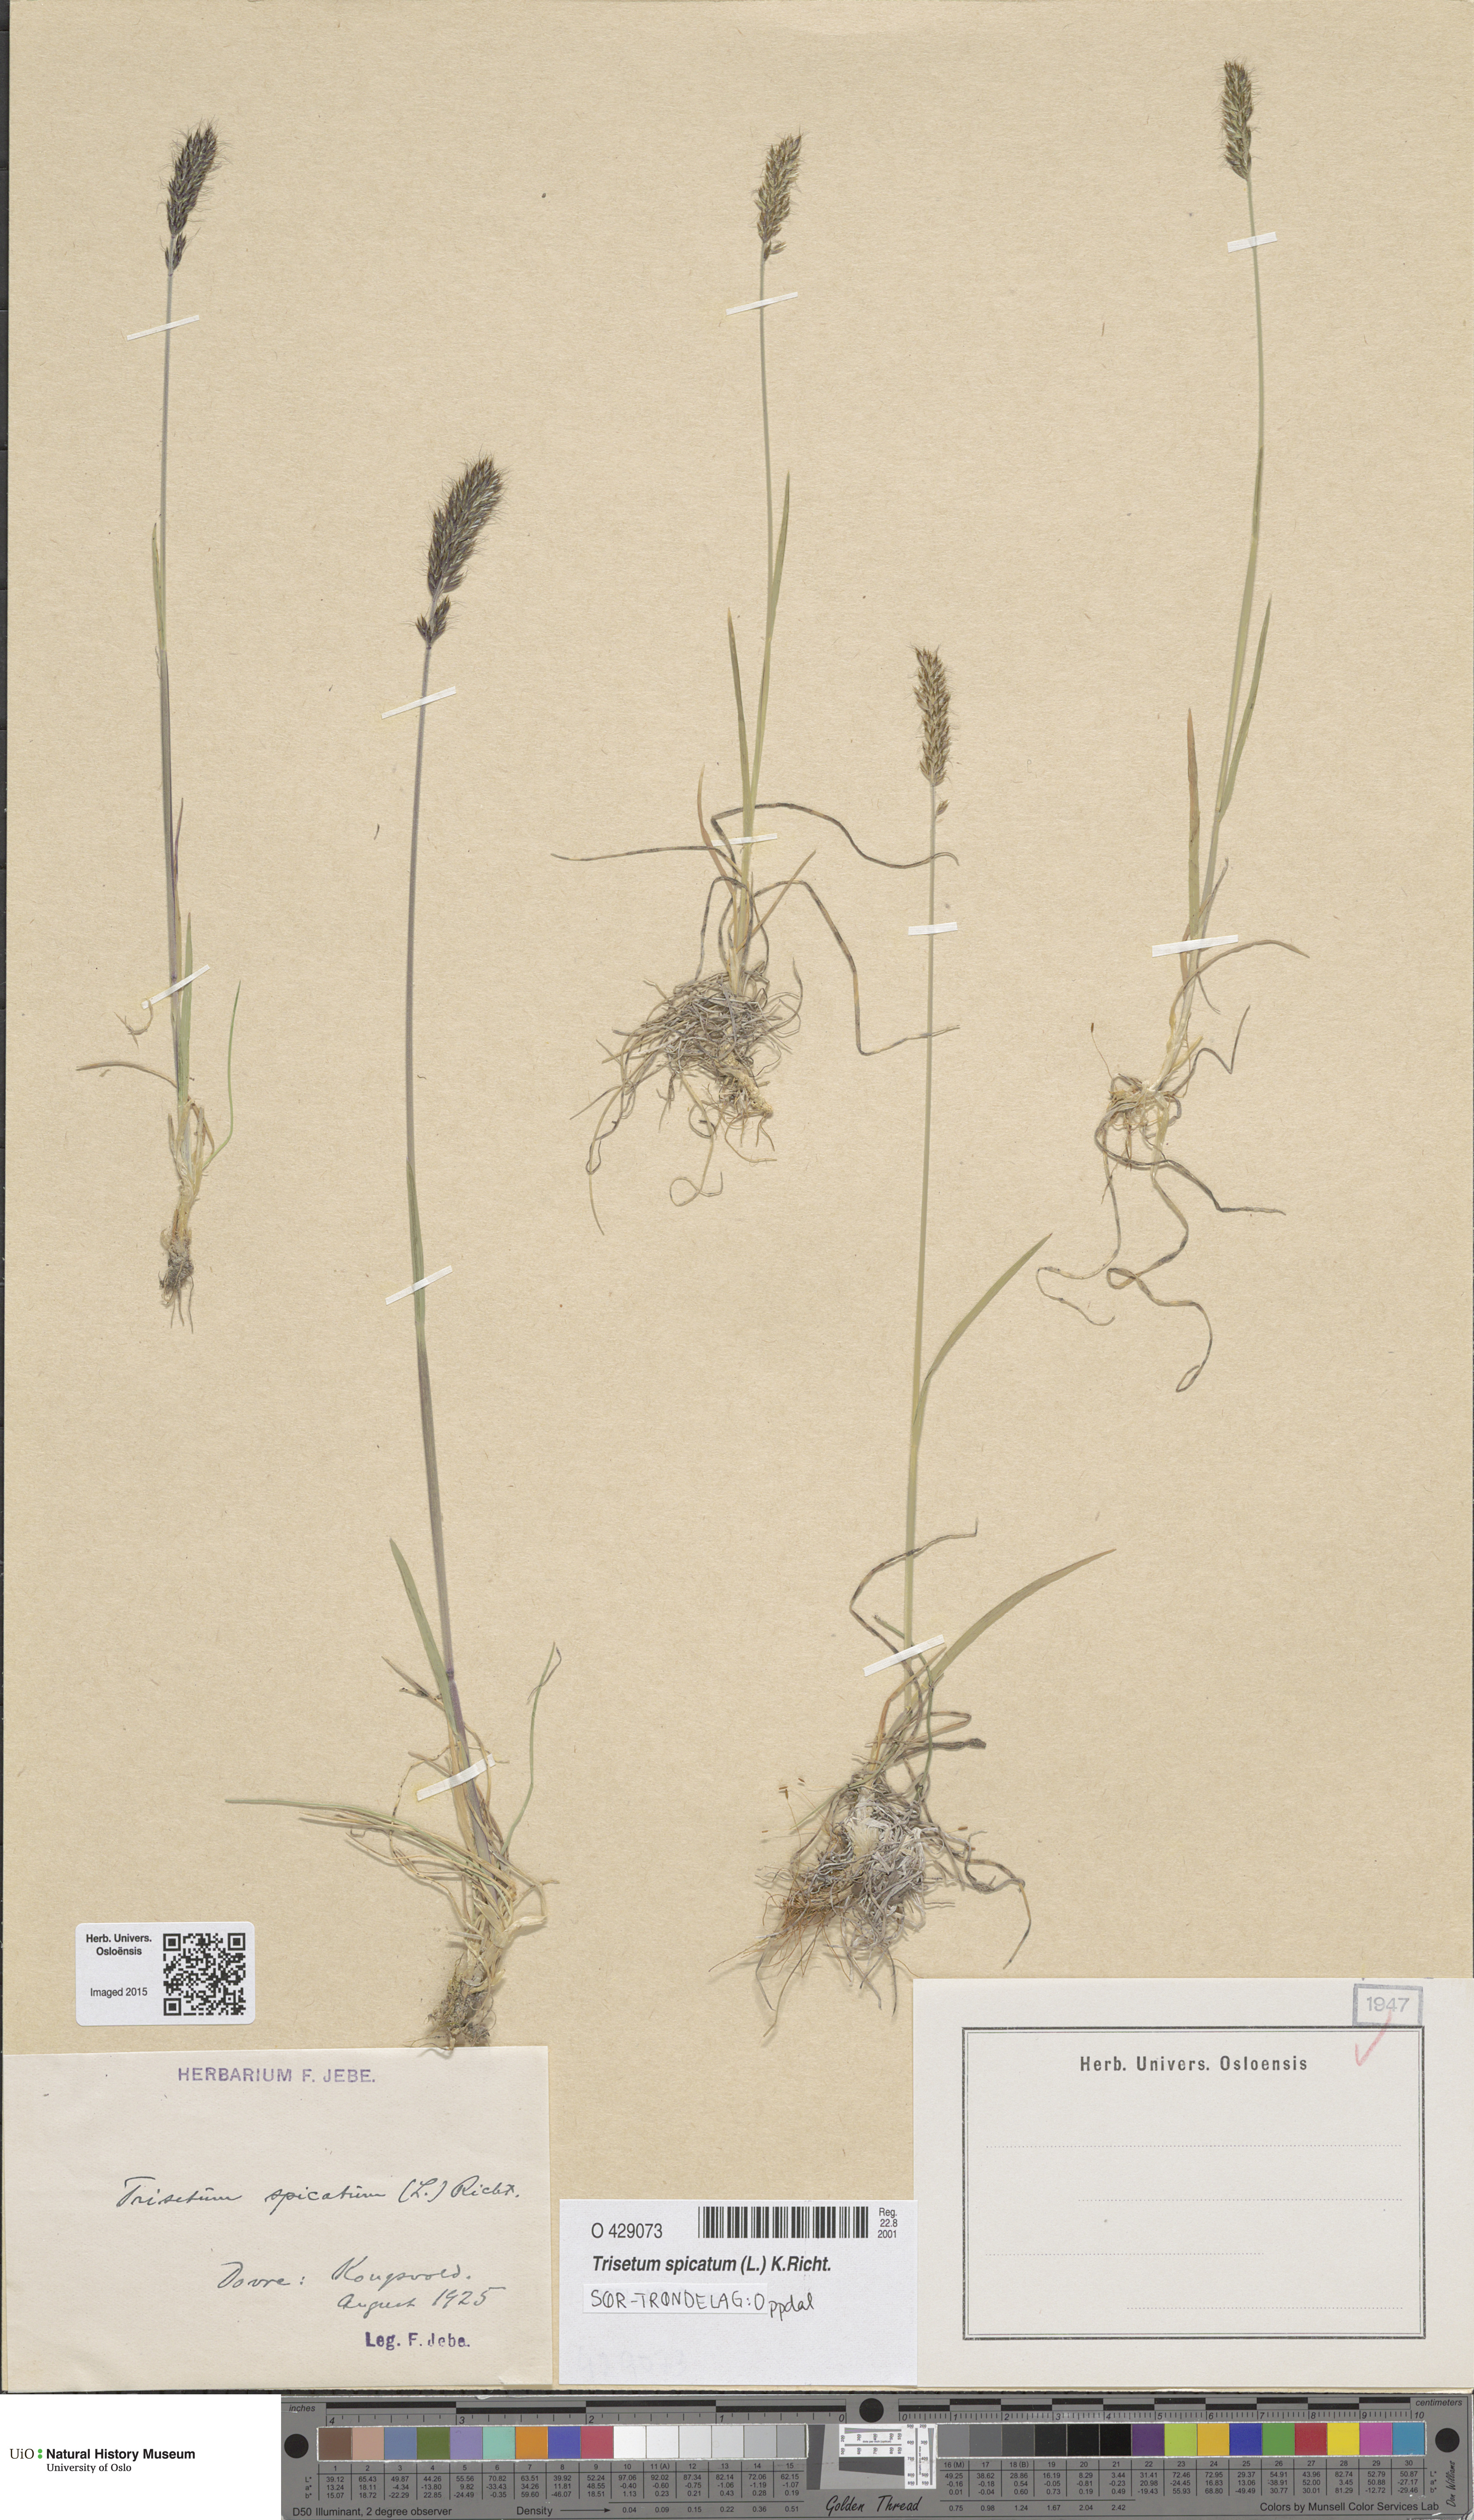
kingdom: Plantae
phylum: Tracheophyta
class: Liliopsida
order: Poales
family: Poaceae
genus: Koeleria
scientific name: Koeleria spicata
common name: Mountain trisetum
